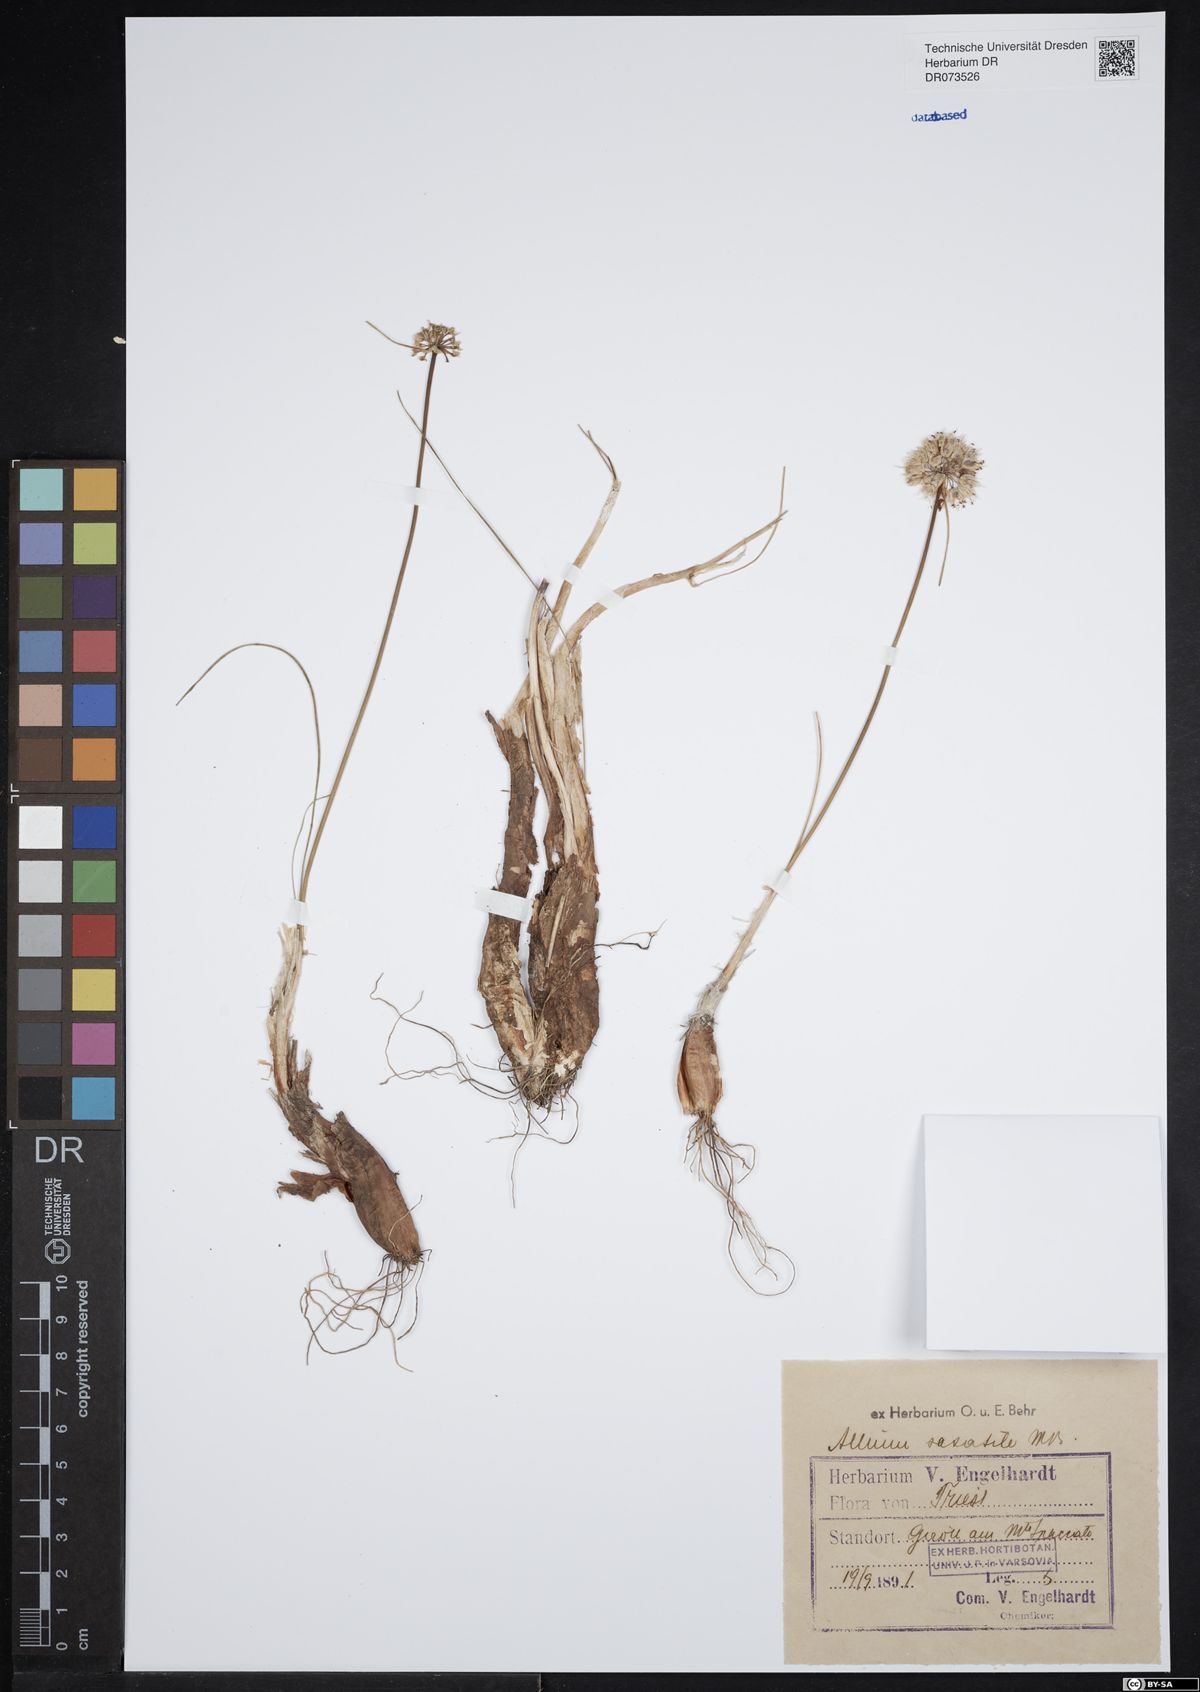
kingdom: Plantae
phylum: Tracheophyta
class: Liliopsida
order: Asparagales
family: Amaryllidaceae
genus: Allium
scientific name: Allium saxatile
